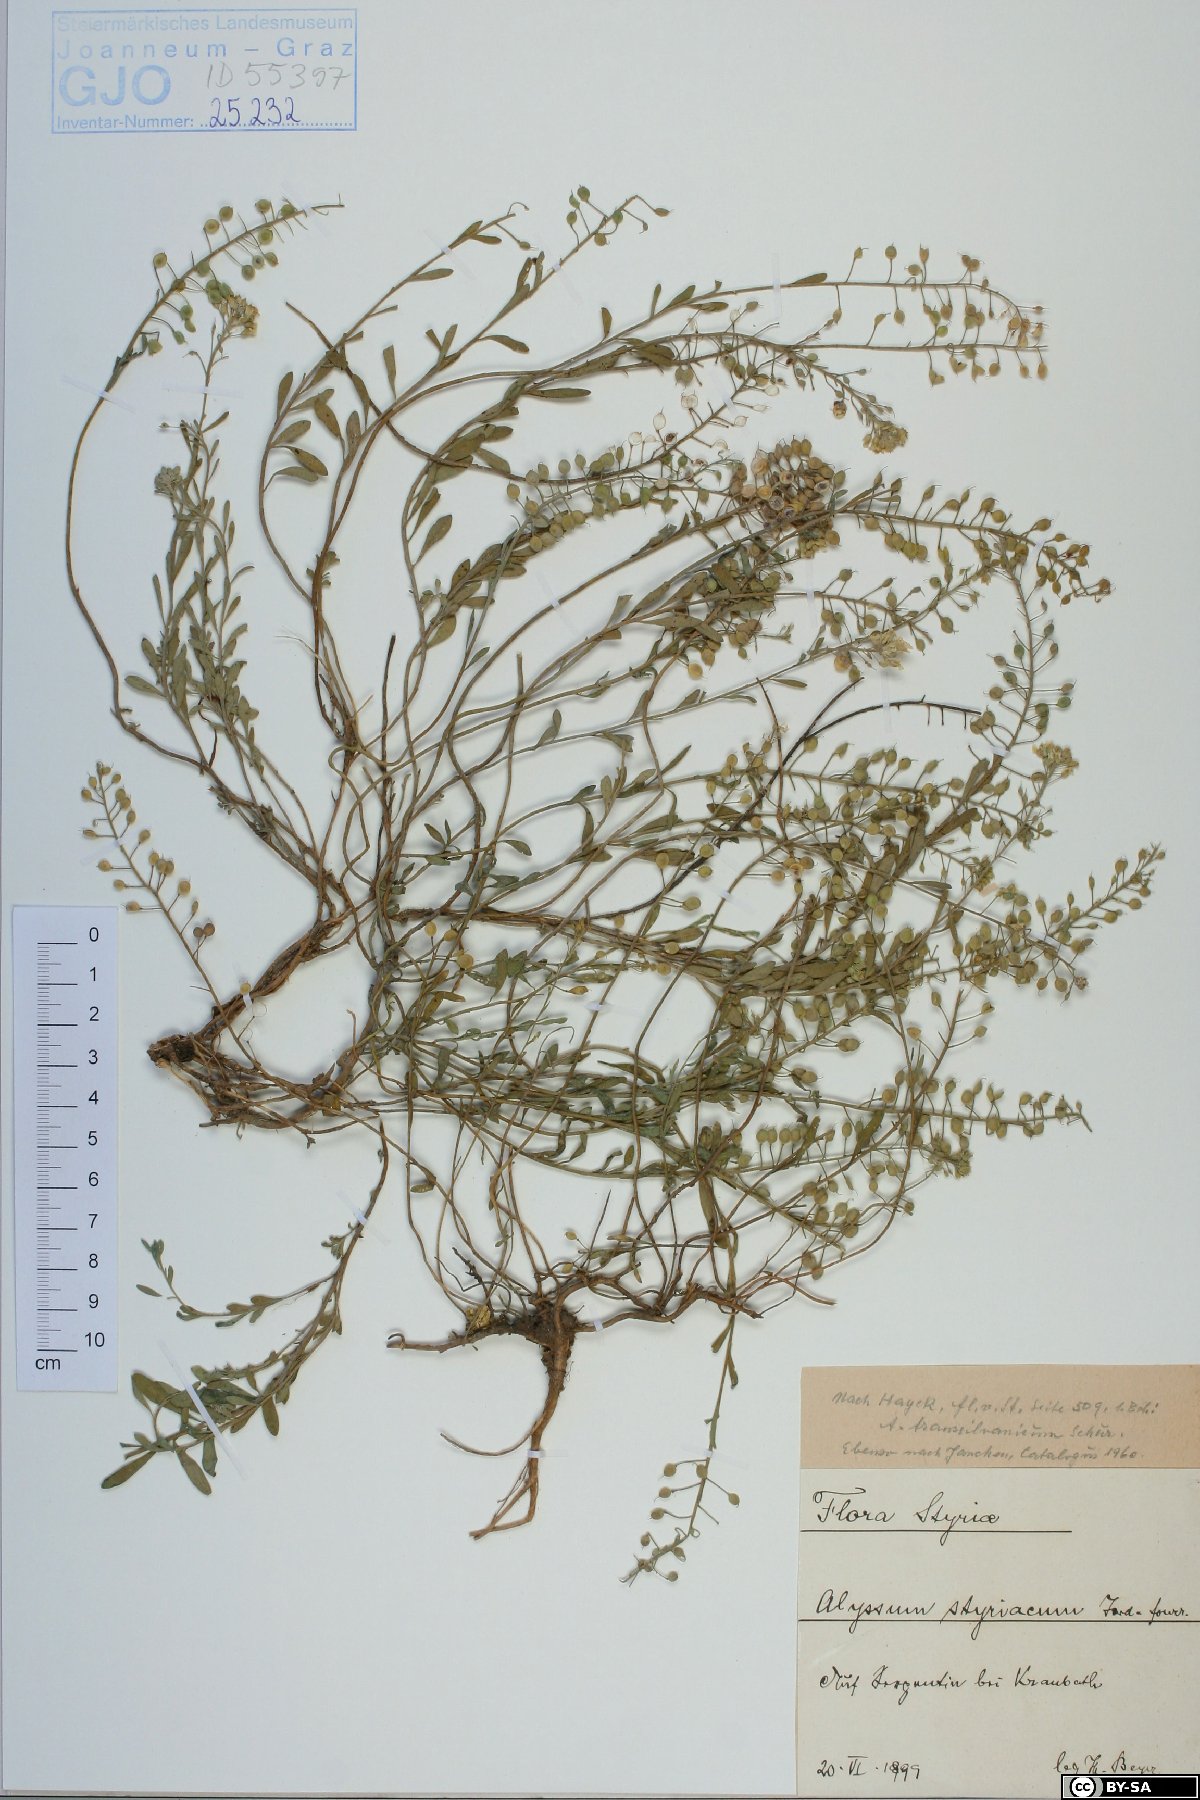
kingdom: Plantae
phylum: Tracheophyta
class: Magnoliopsida
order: Brassicales
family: Brassicaceae
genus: Alyssum
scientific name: Alyssum repens
